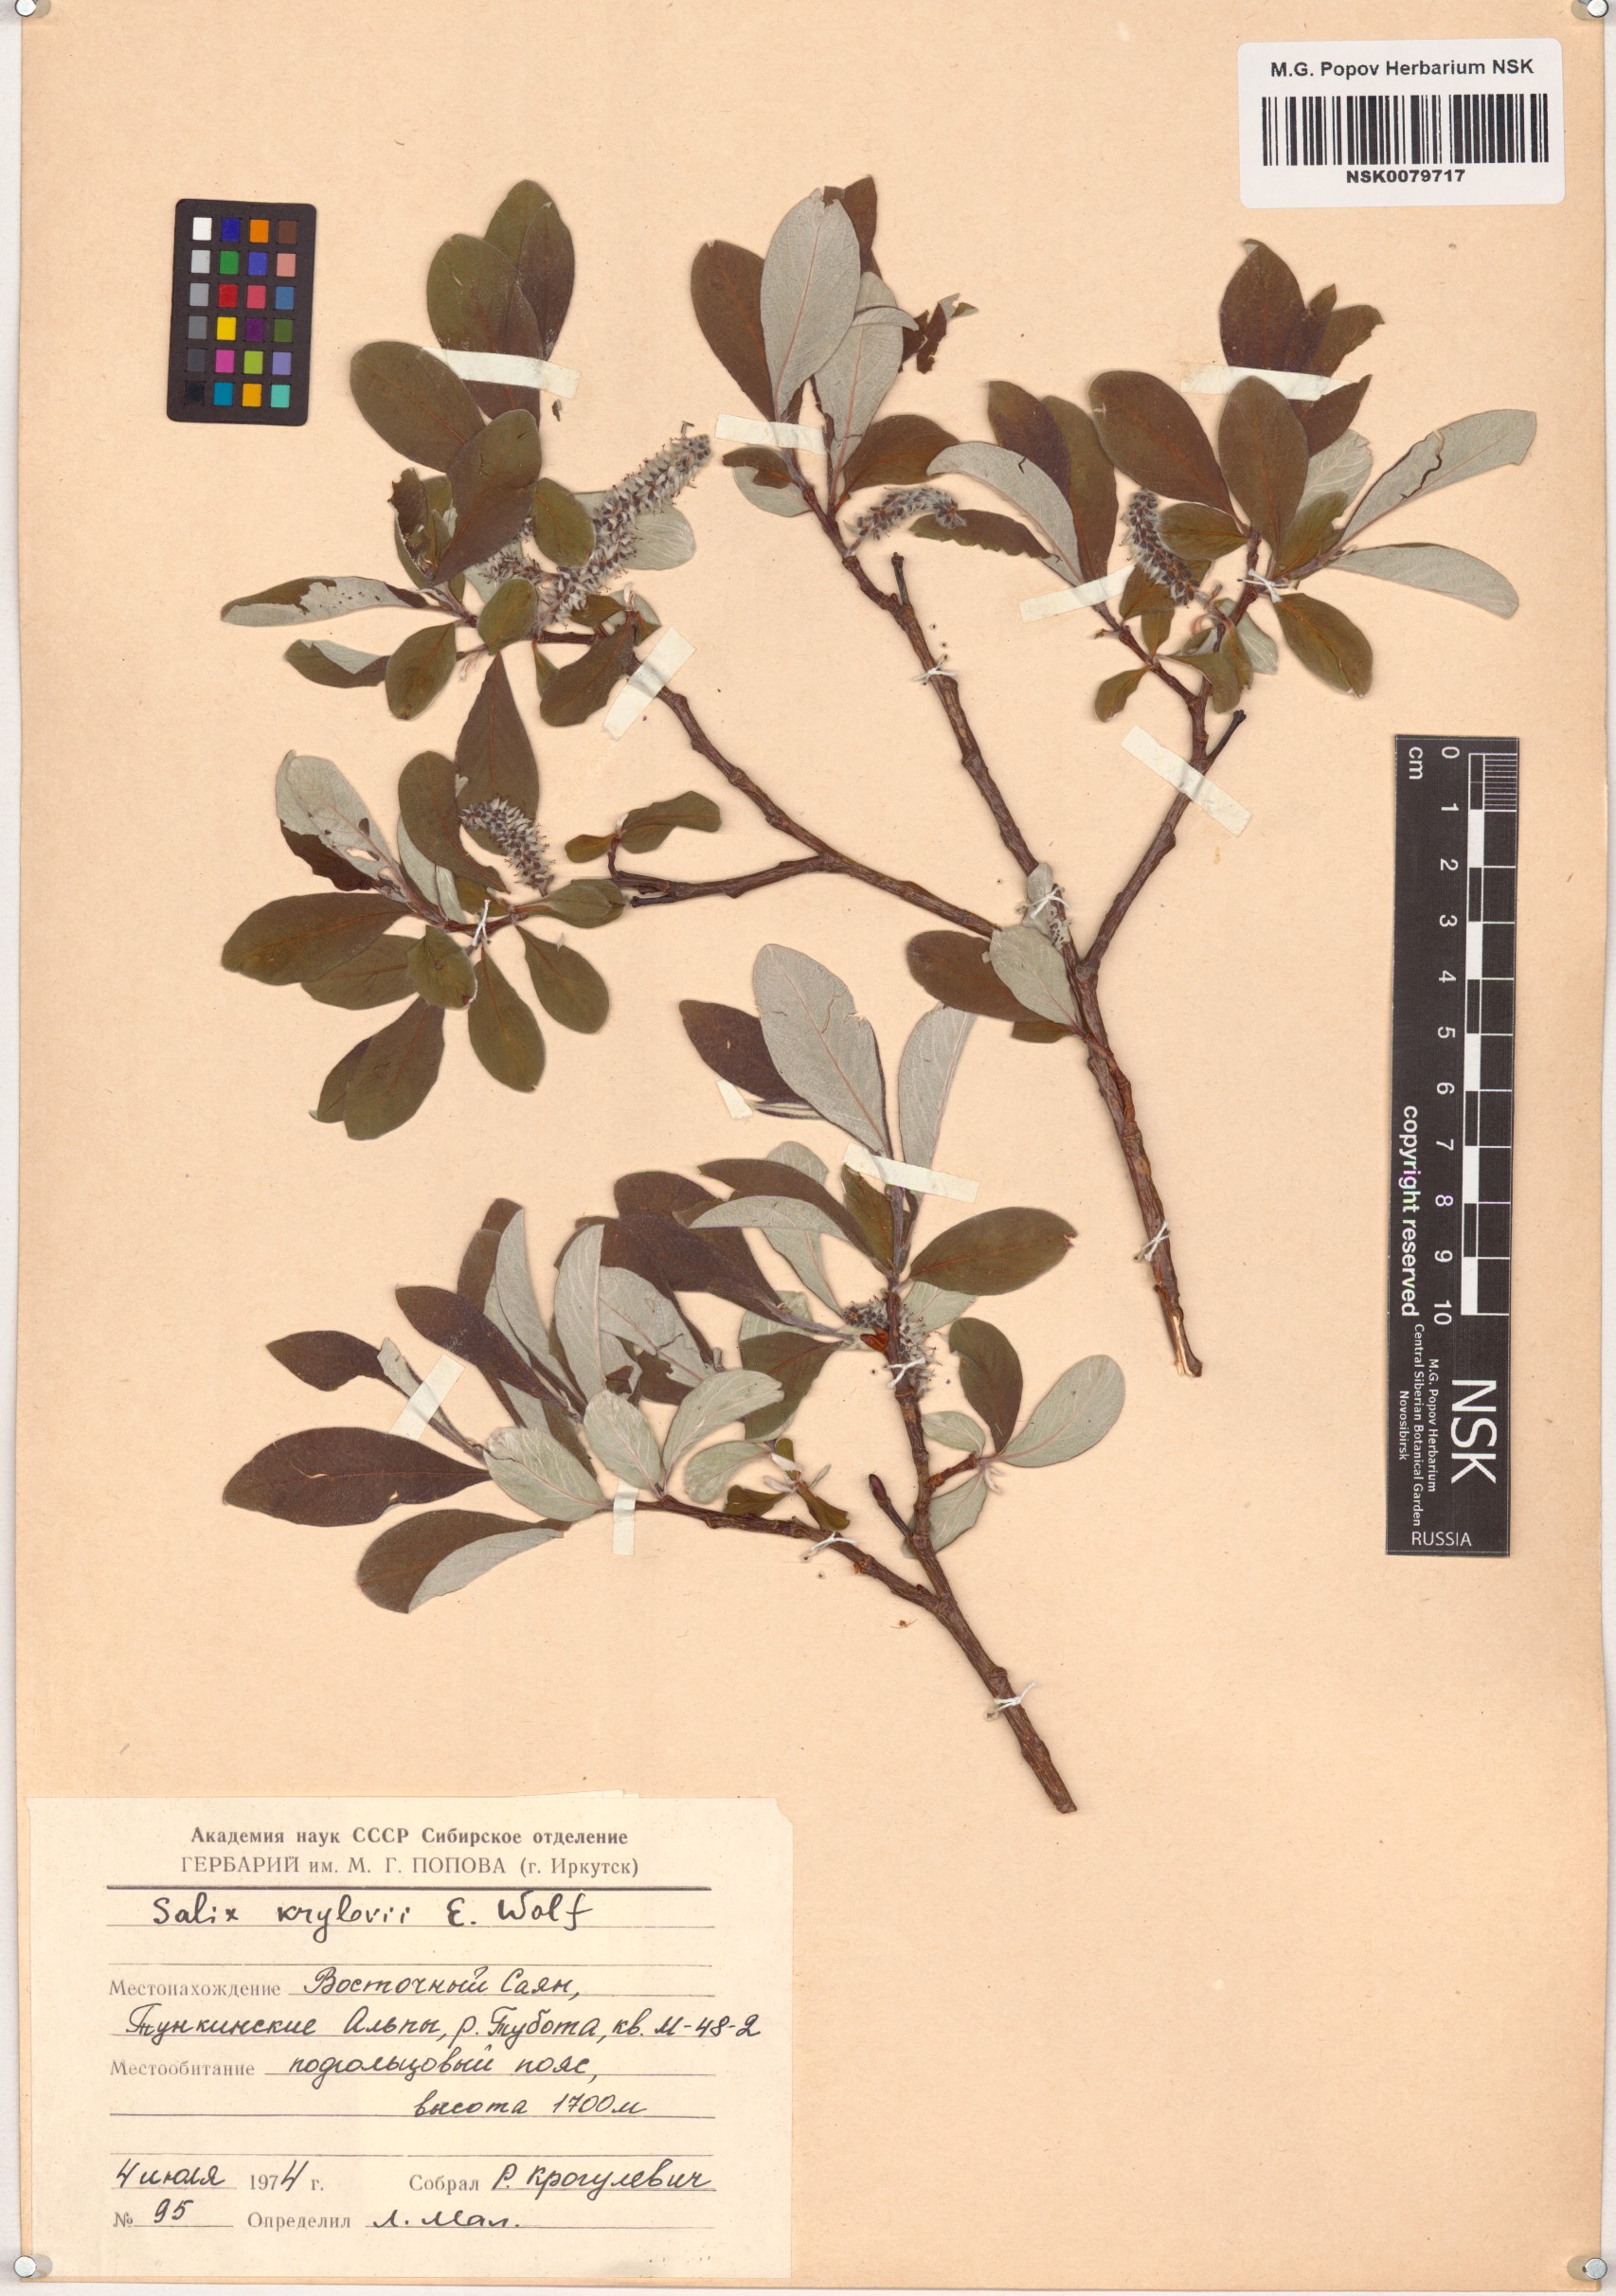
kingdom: Plantae
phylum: Tracheophyta
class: Magnoliopsida
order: Malpighiales
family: Salicaceae
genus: Salix
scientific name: Salix krylovii
